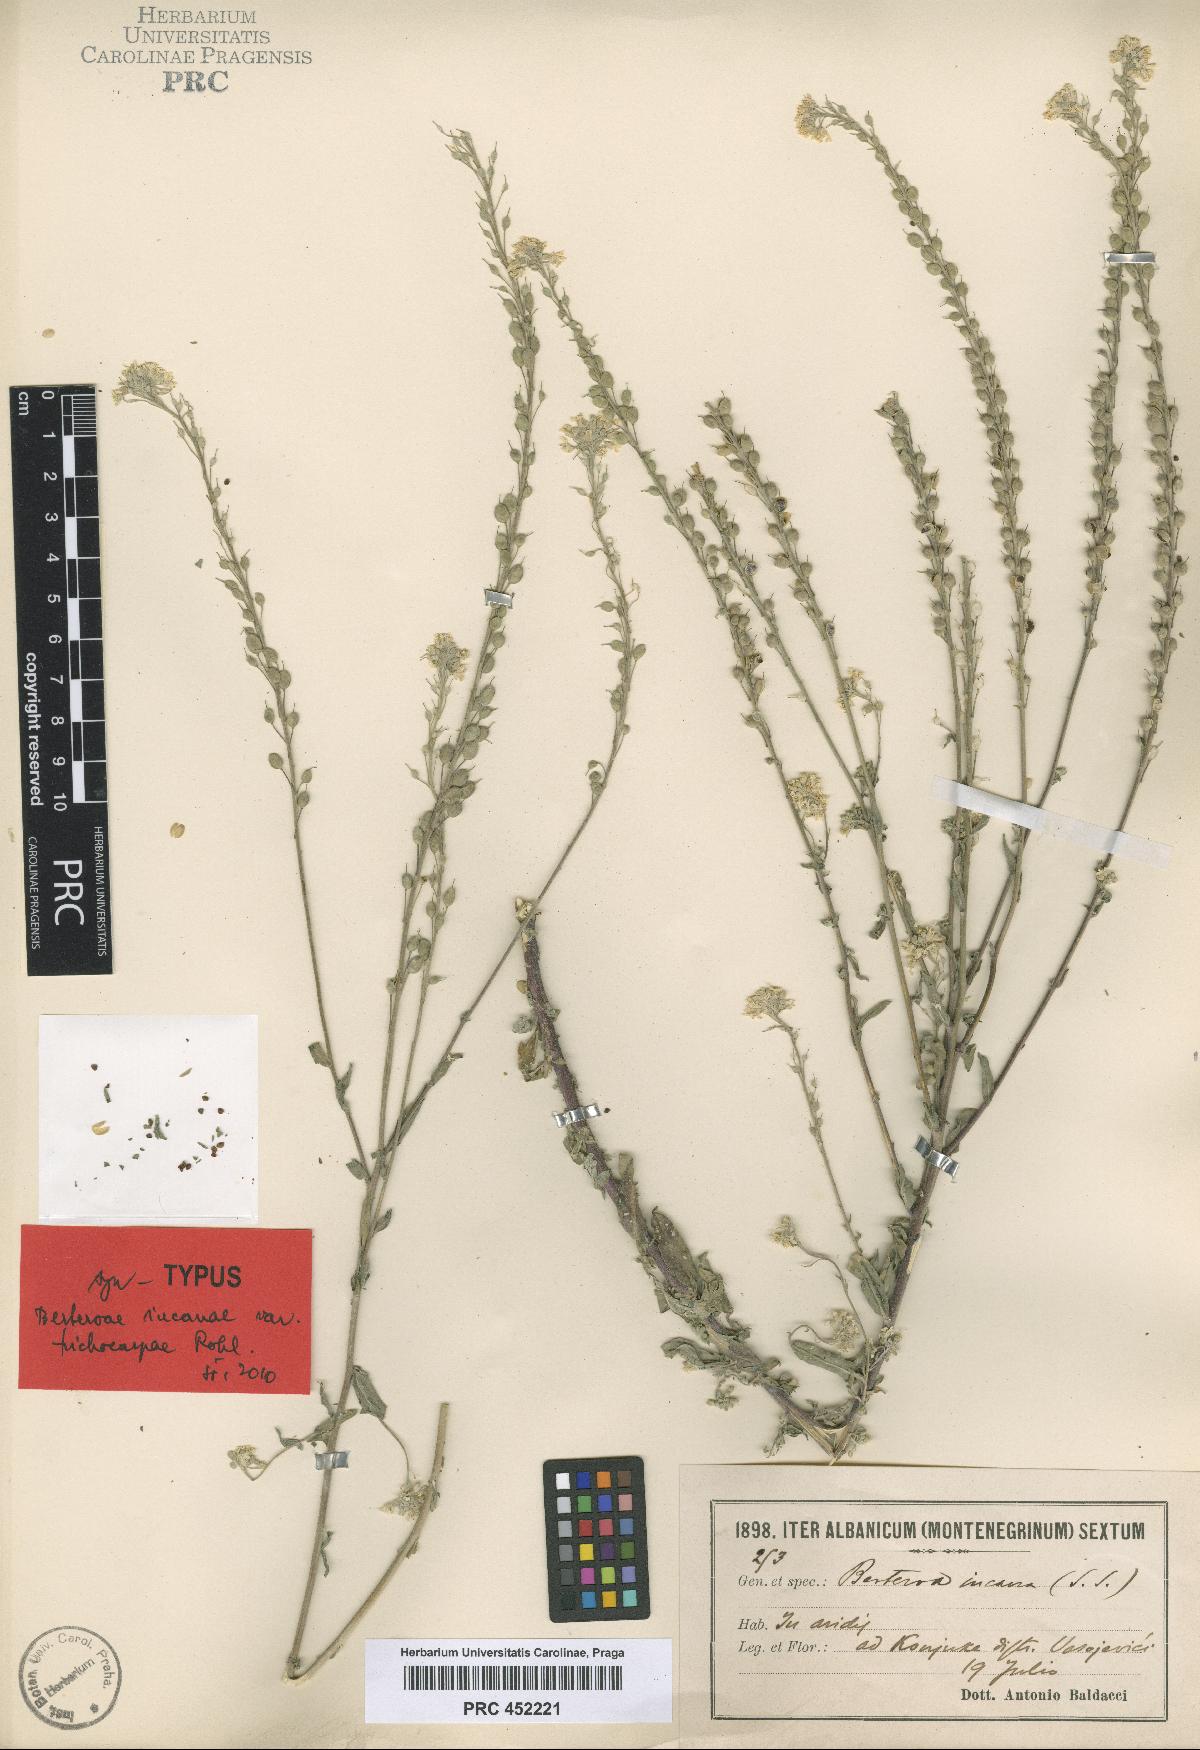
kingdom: Plantae
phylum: Tracheophyta
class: Magnoliopsida
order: Brassicales
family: Brassicaceae
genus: Berteroa
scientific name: Berteroa incana
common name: Hoary alison
